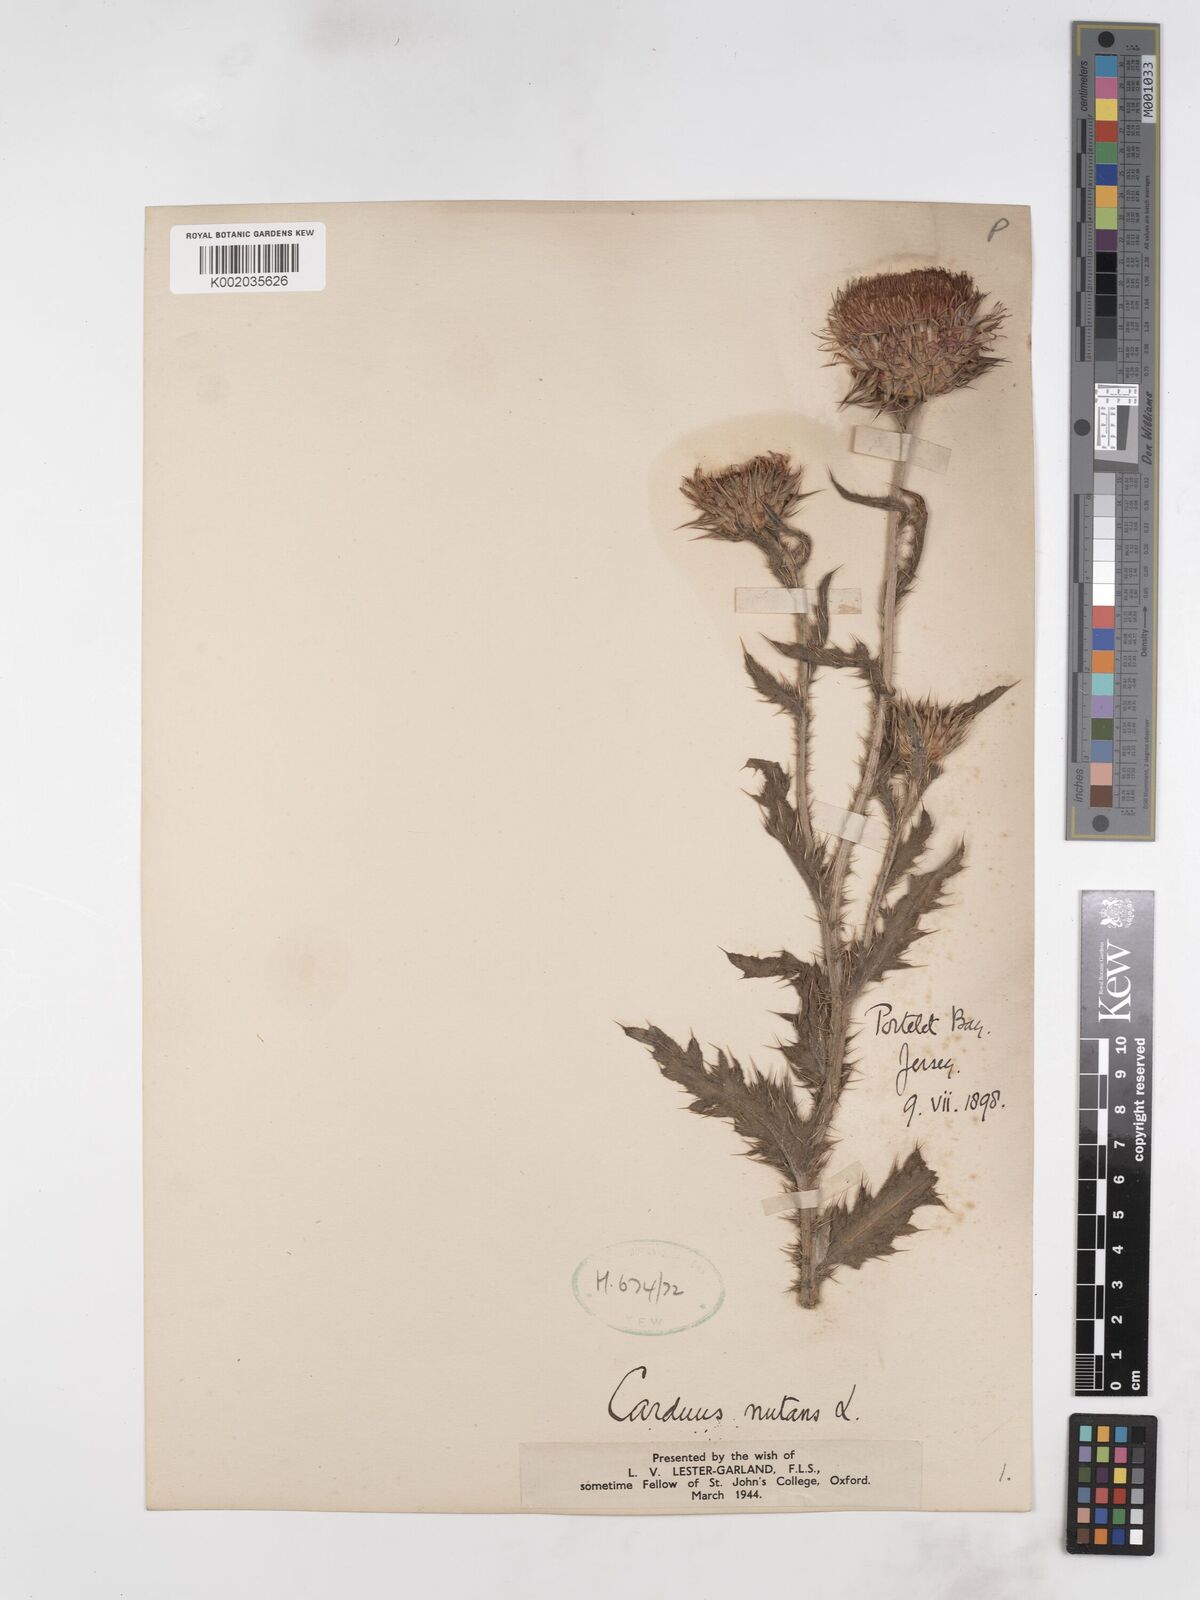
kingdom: Plantae
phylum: Tracheophyta
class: Magnoliopsida
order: Asterales
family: Asteraceae
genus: Carduus
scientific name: Carduus nutans
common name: Musk thistle
